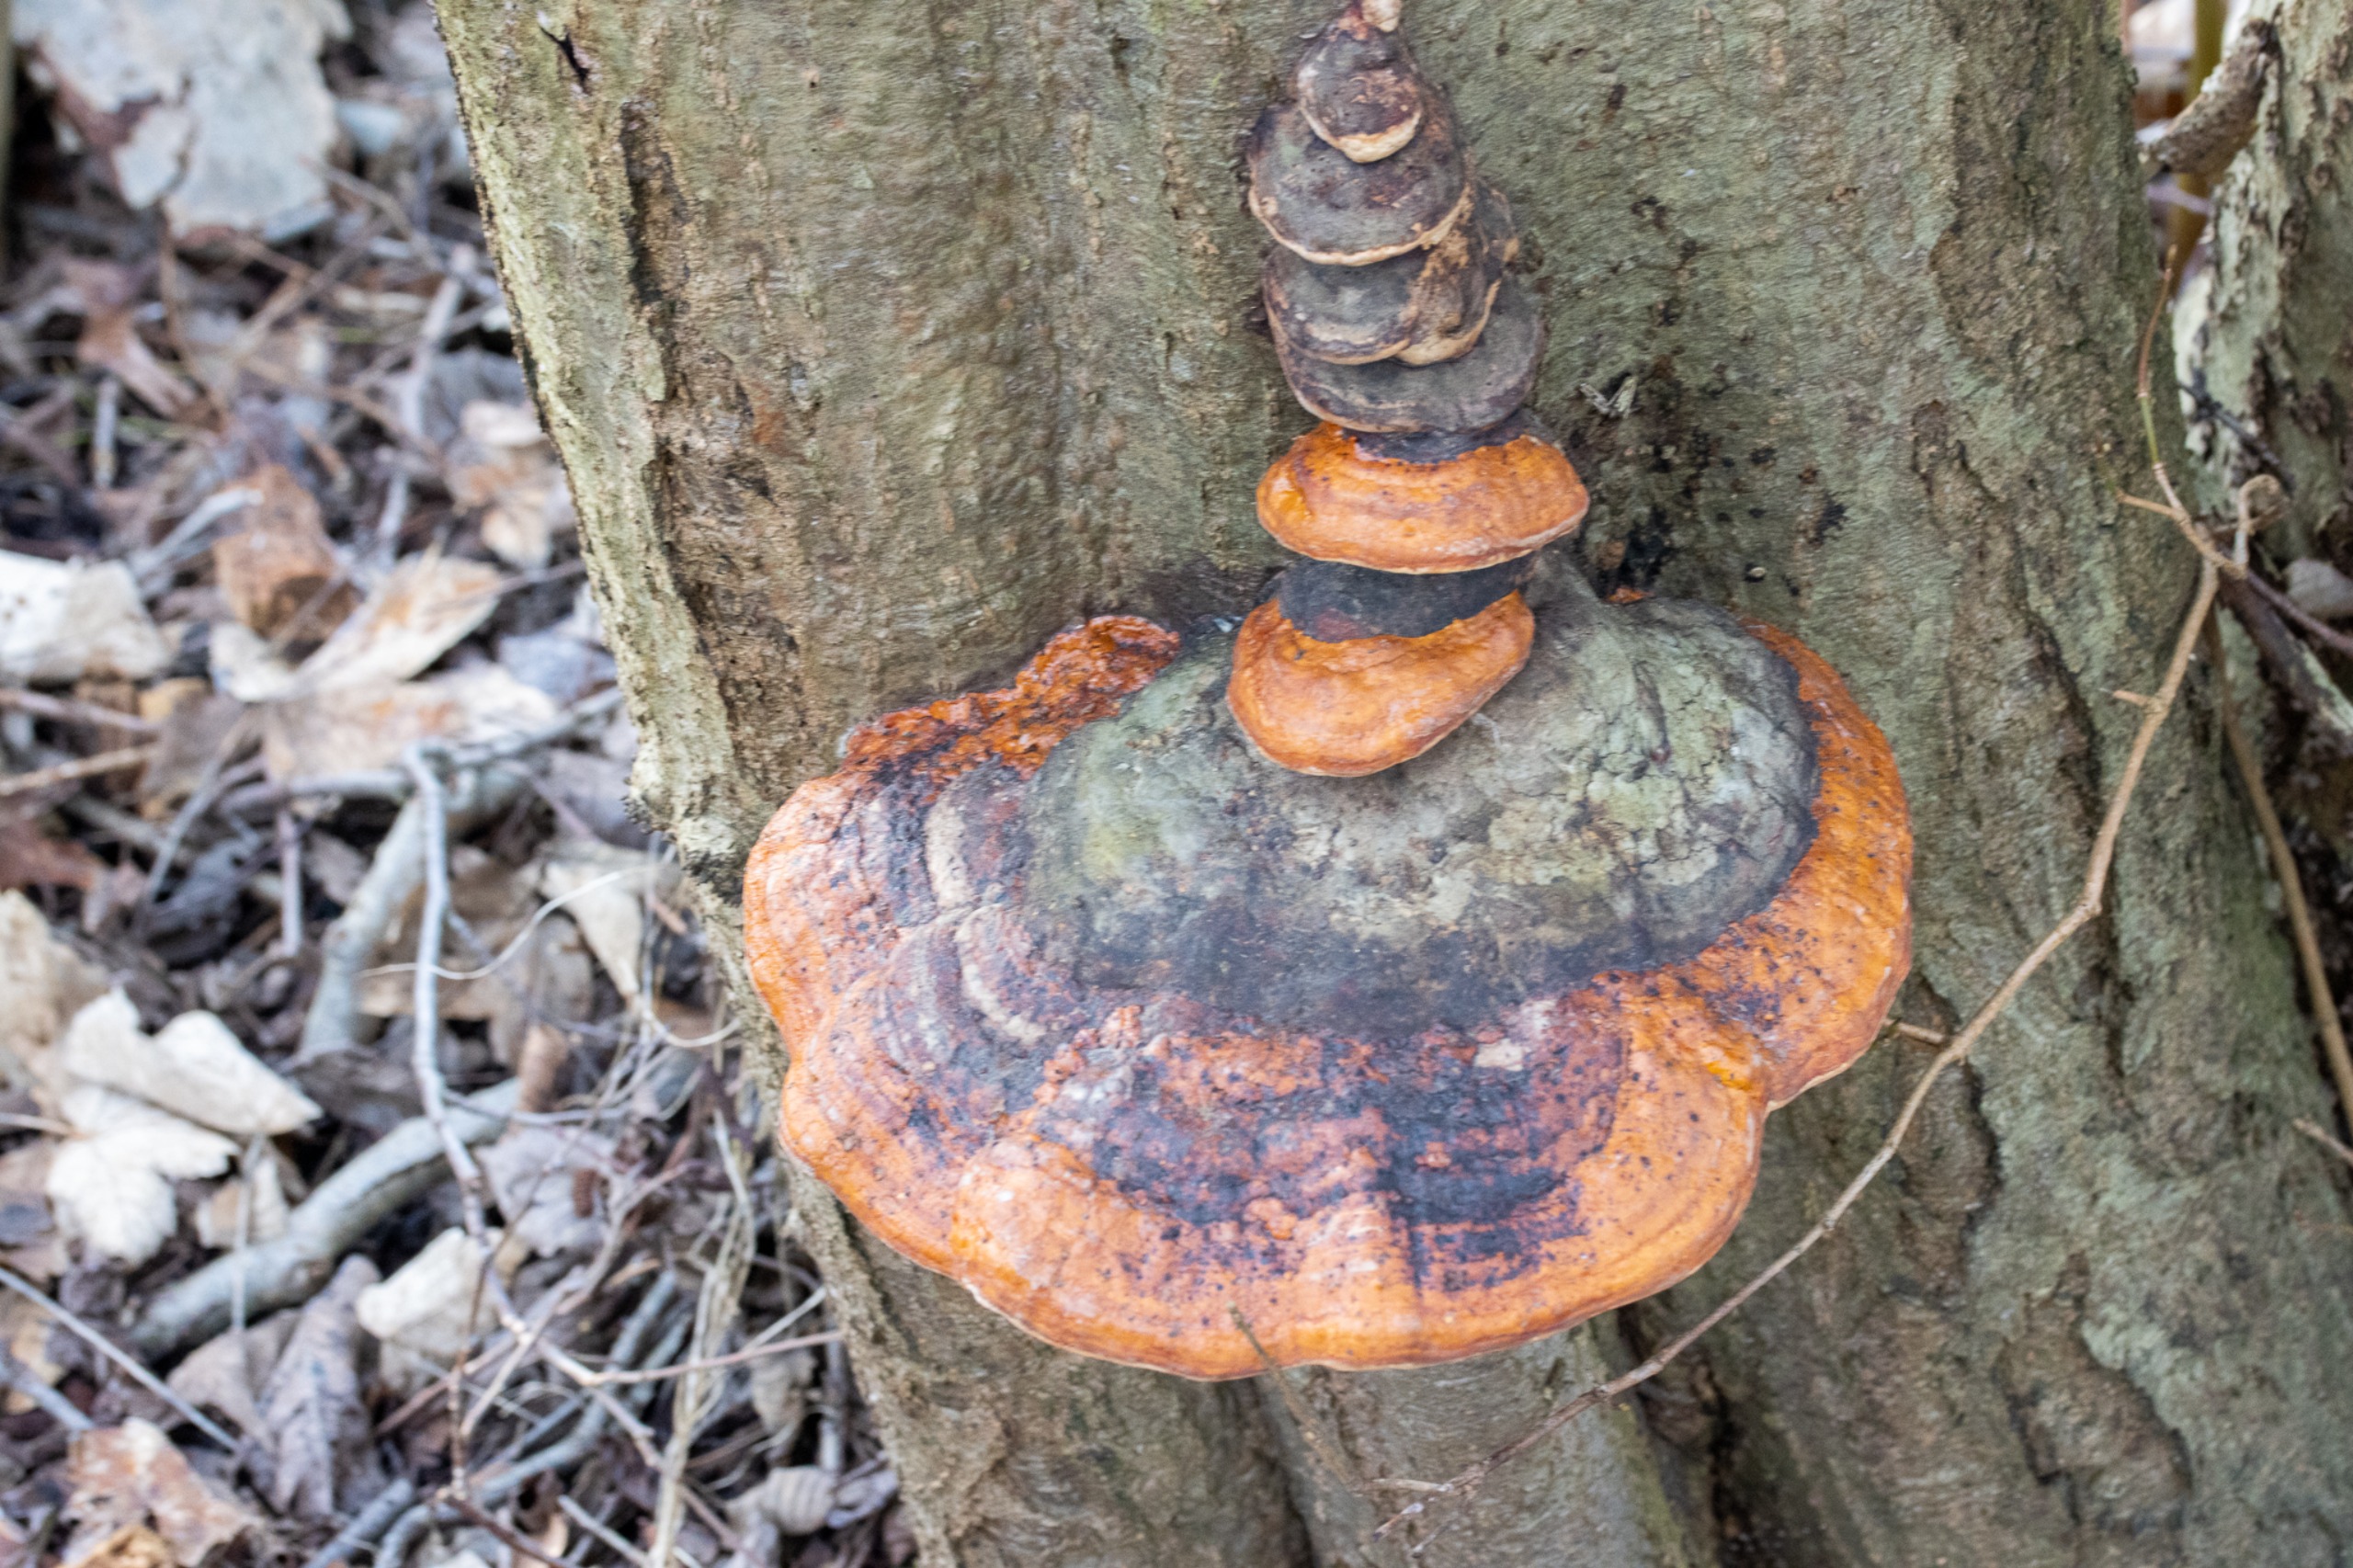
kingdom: Fungi
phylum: Basidiomycota
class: Agaricomycetes
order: Polyporales
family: Fomitopsidaceae
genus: Fomitopsis
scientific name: Fomitopsis pinicola
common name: Randbæltet hovporesvamp
